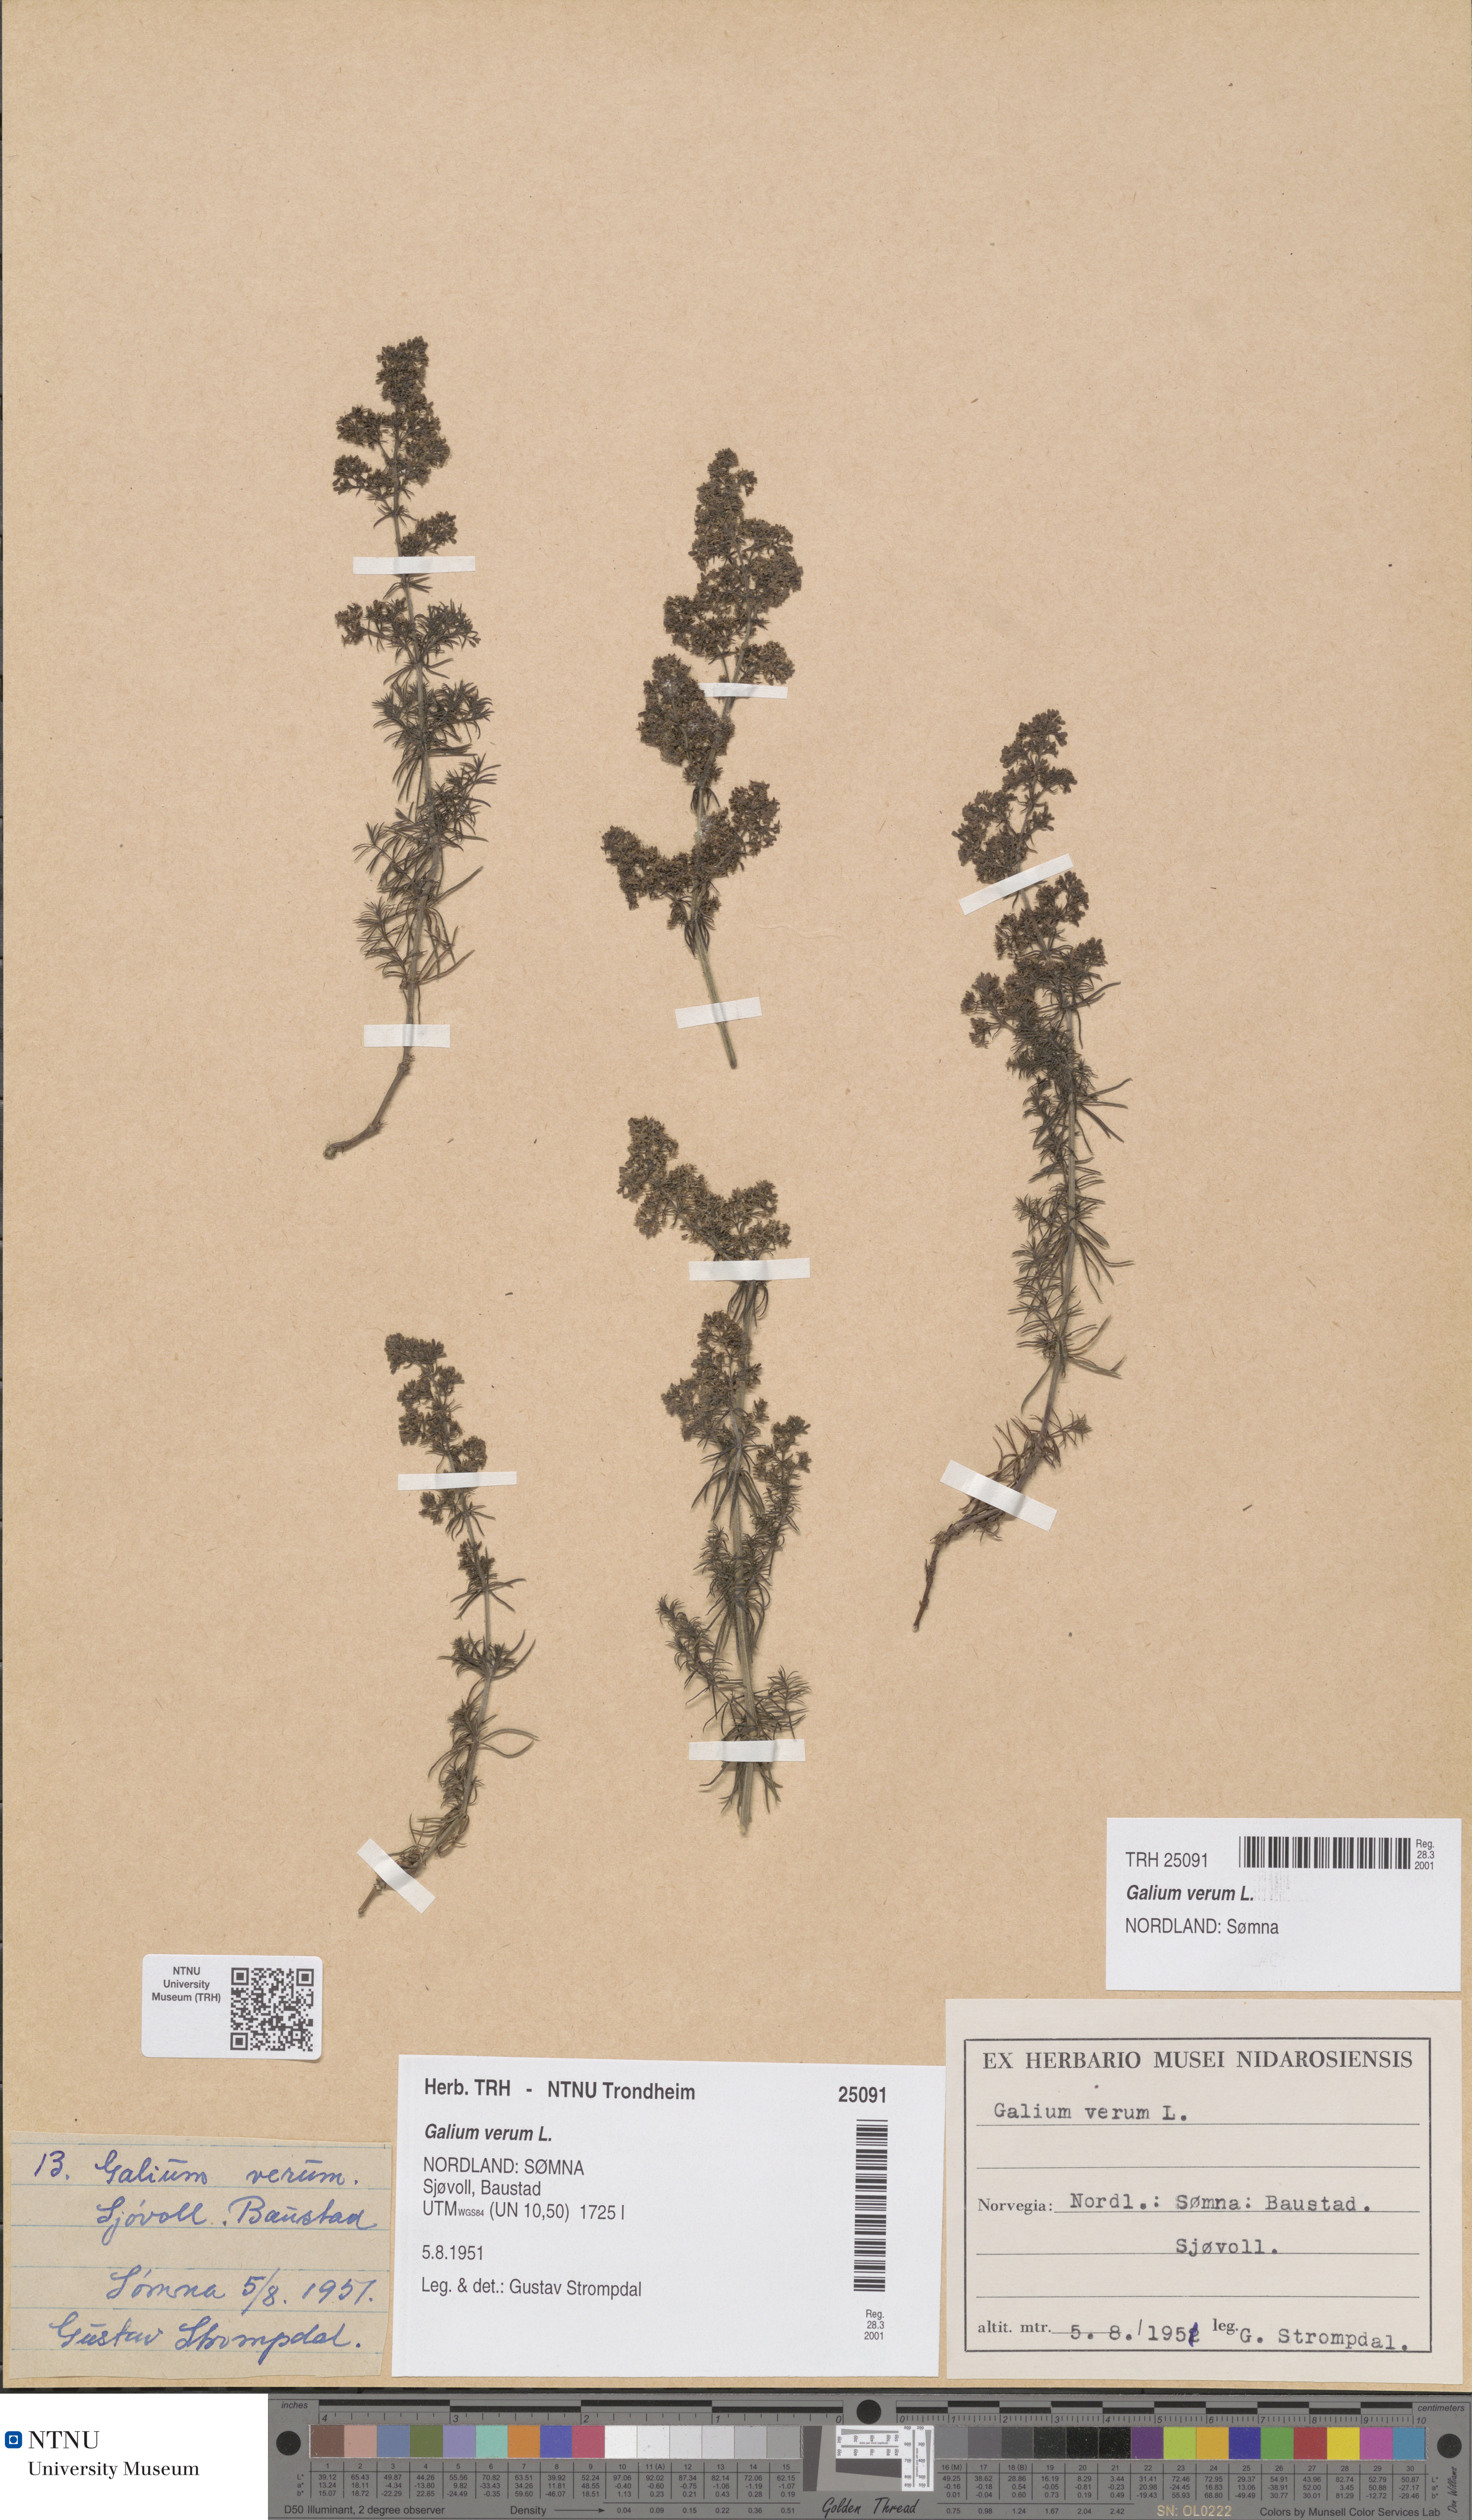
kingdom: Plantae
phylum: Tracheophyta
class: Magnoliopsida
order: Gentianales
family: Rubiaceae
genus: Galium
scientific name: Galium verum
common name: Lady's bedstraw
